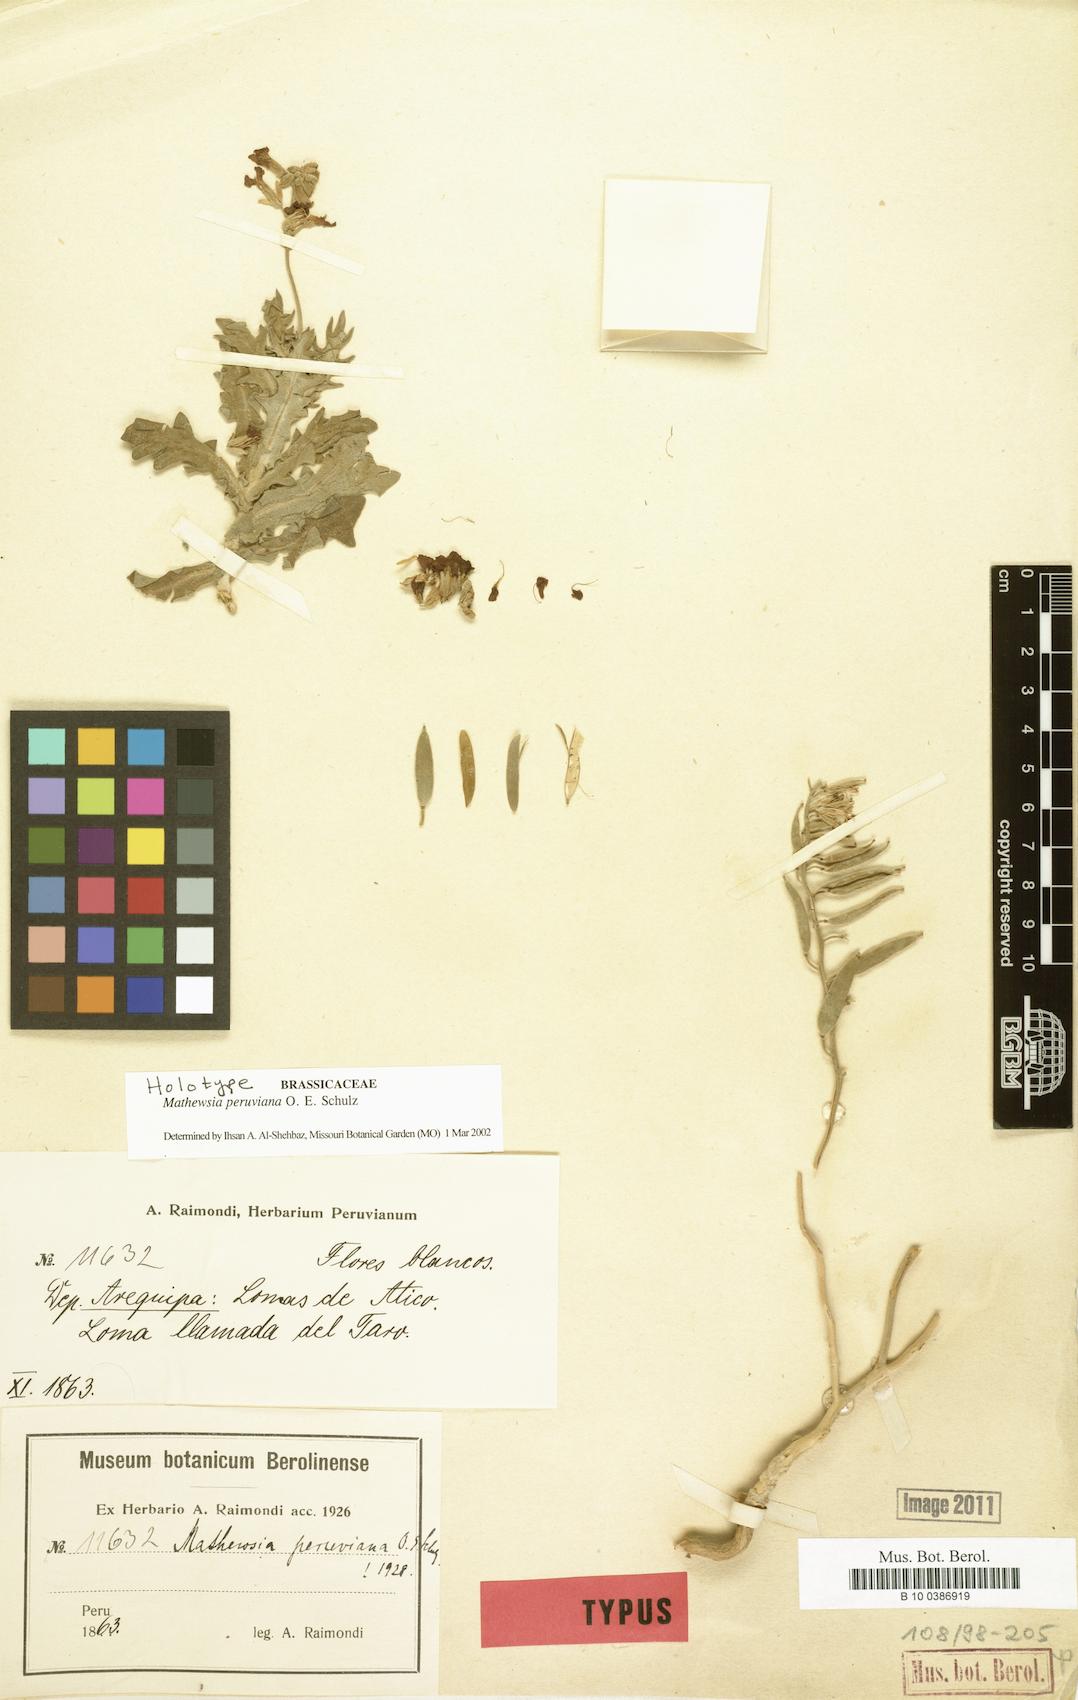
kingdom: Plantae
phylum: Tracheophyta
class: Magnoliopsida
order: Brassicales
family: Brassicaceae
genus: Mathewsia
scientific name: Mathewsia peruviana
